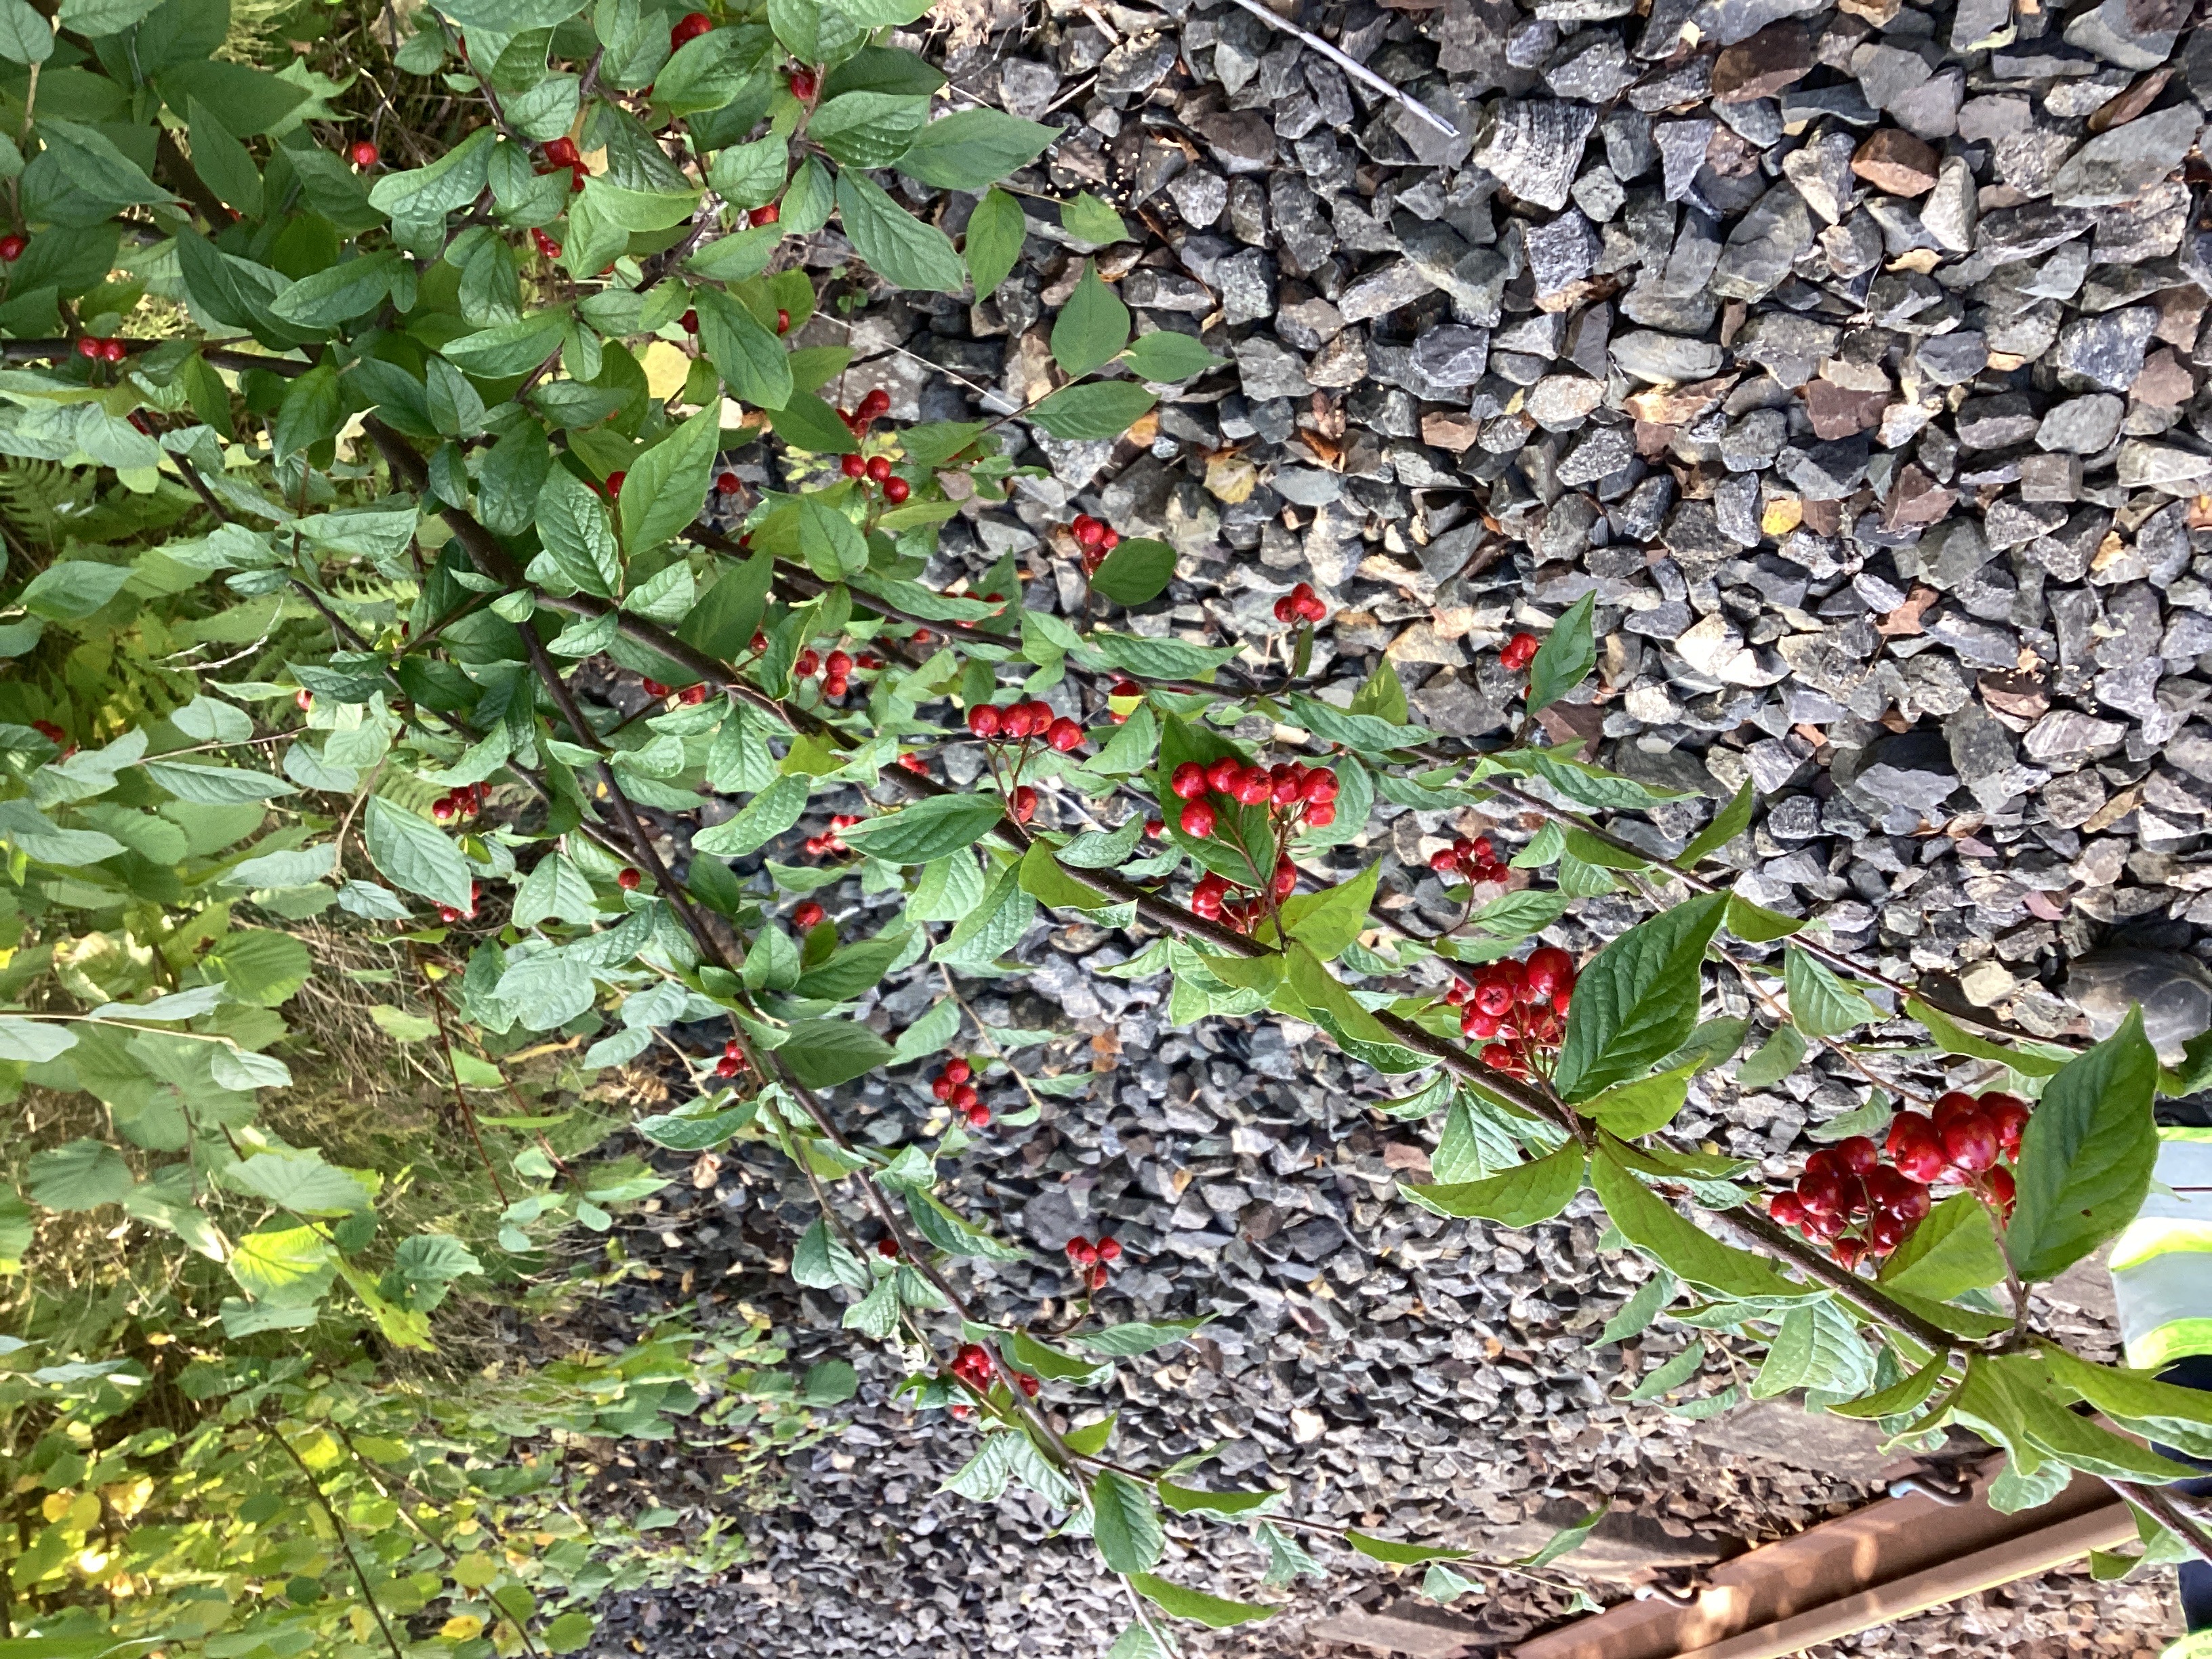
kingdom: Plantae
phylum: Tracheophyta
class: Magnoliopsida
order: Rosales
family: Rosaceae
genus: Cotoneaster
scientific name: Cotoneaster bullatus
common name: bulkemispel
